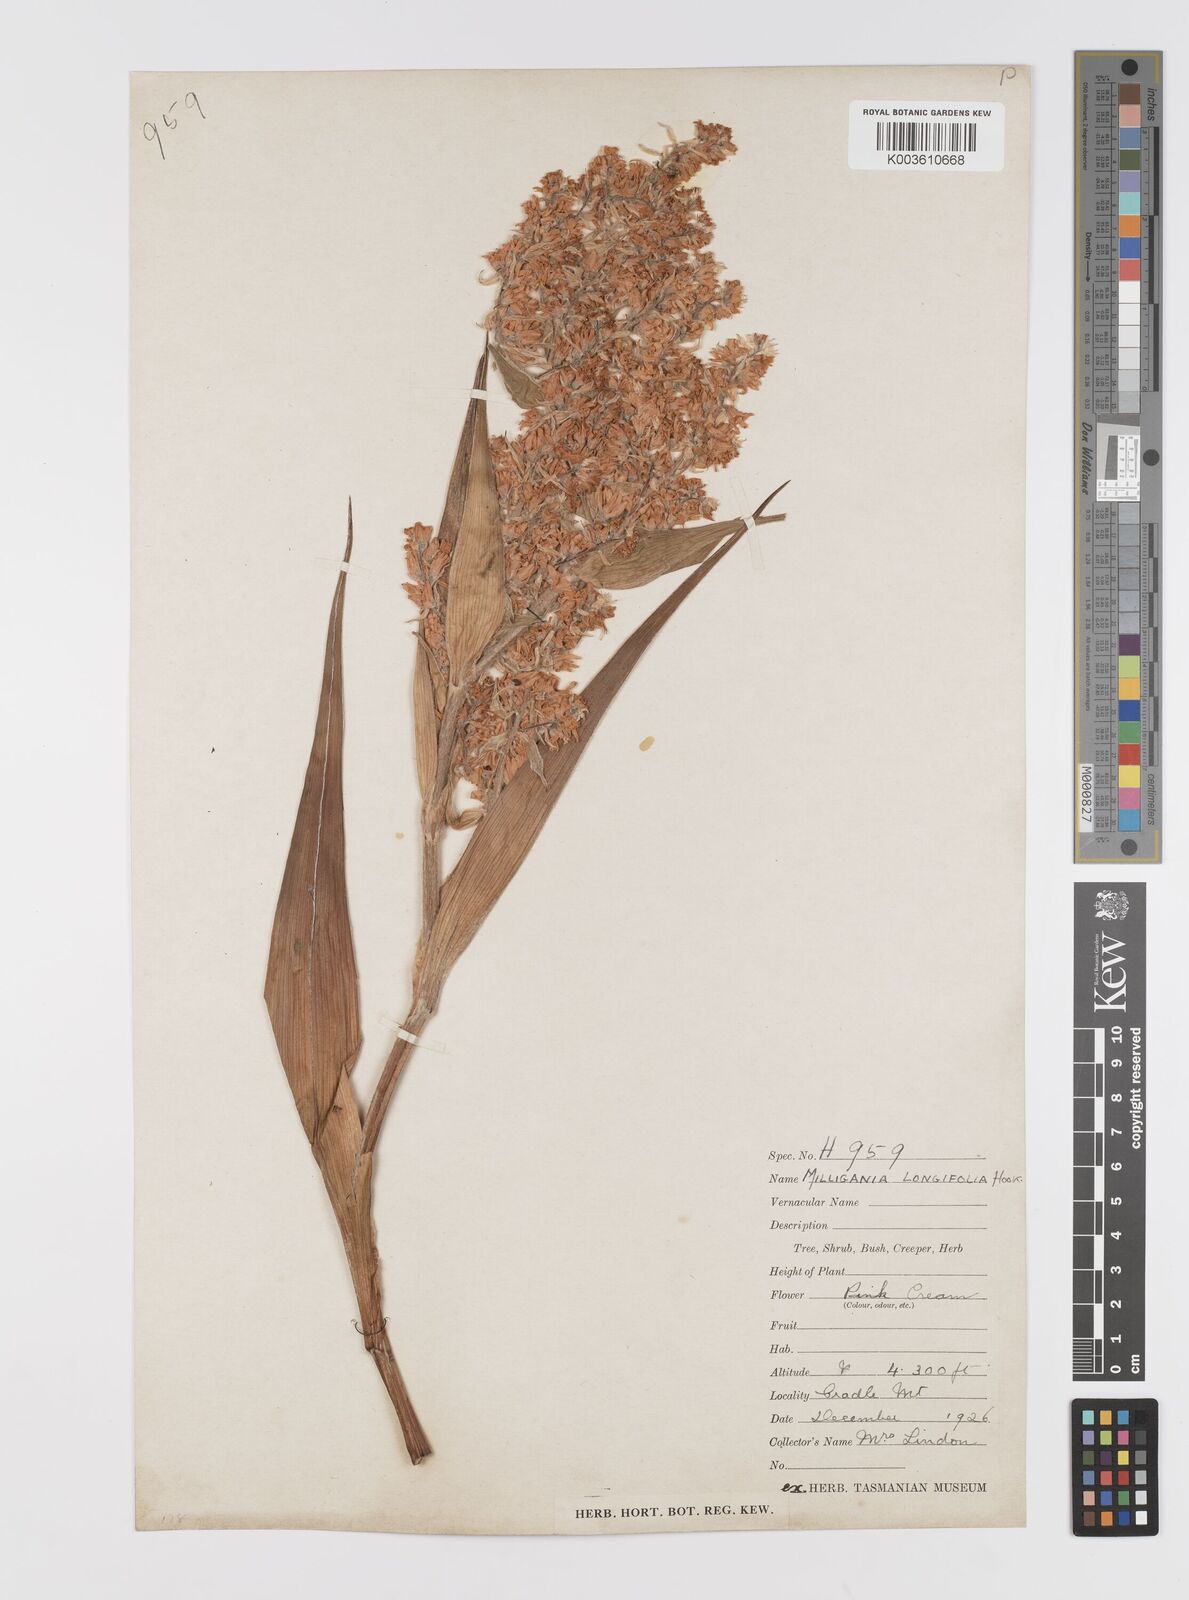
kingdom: Plantae
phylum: Tracheophyta
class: Liliopsida
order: Asparagales
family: Asteliaceae
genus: Milligania
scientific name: Milligania densiflora
